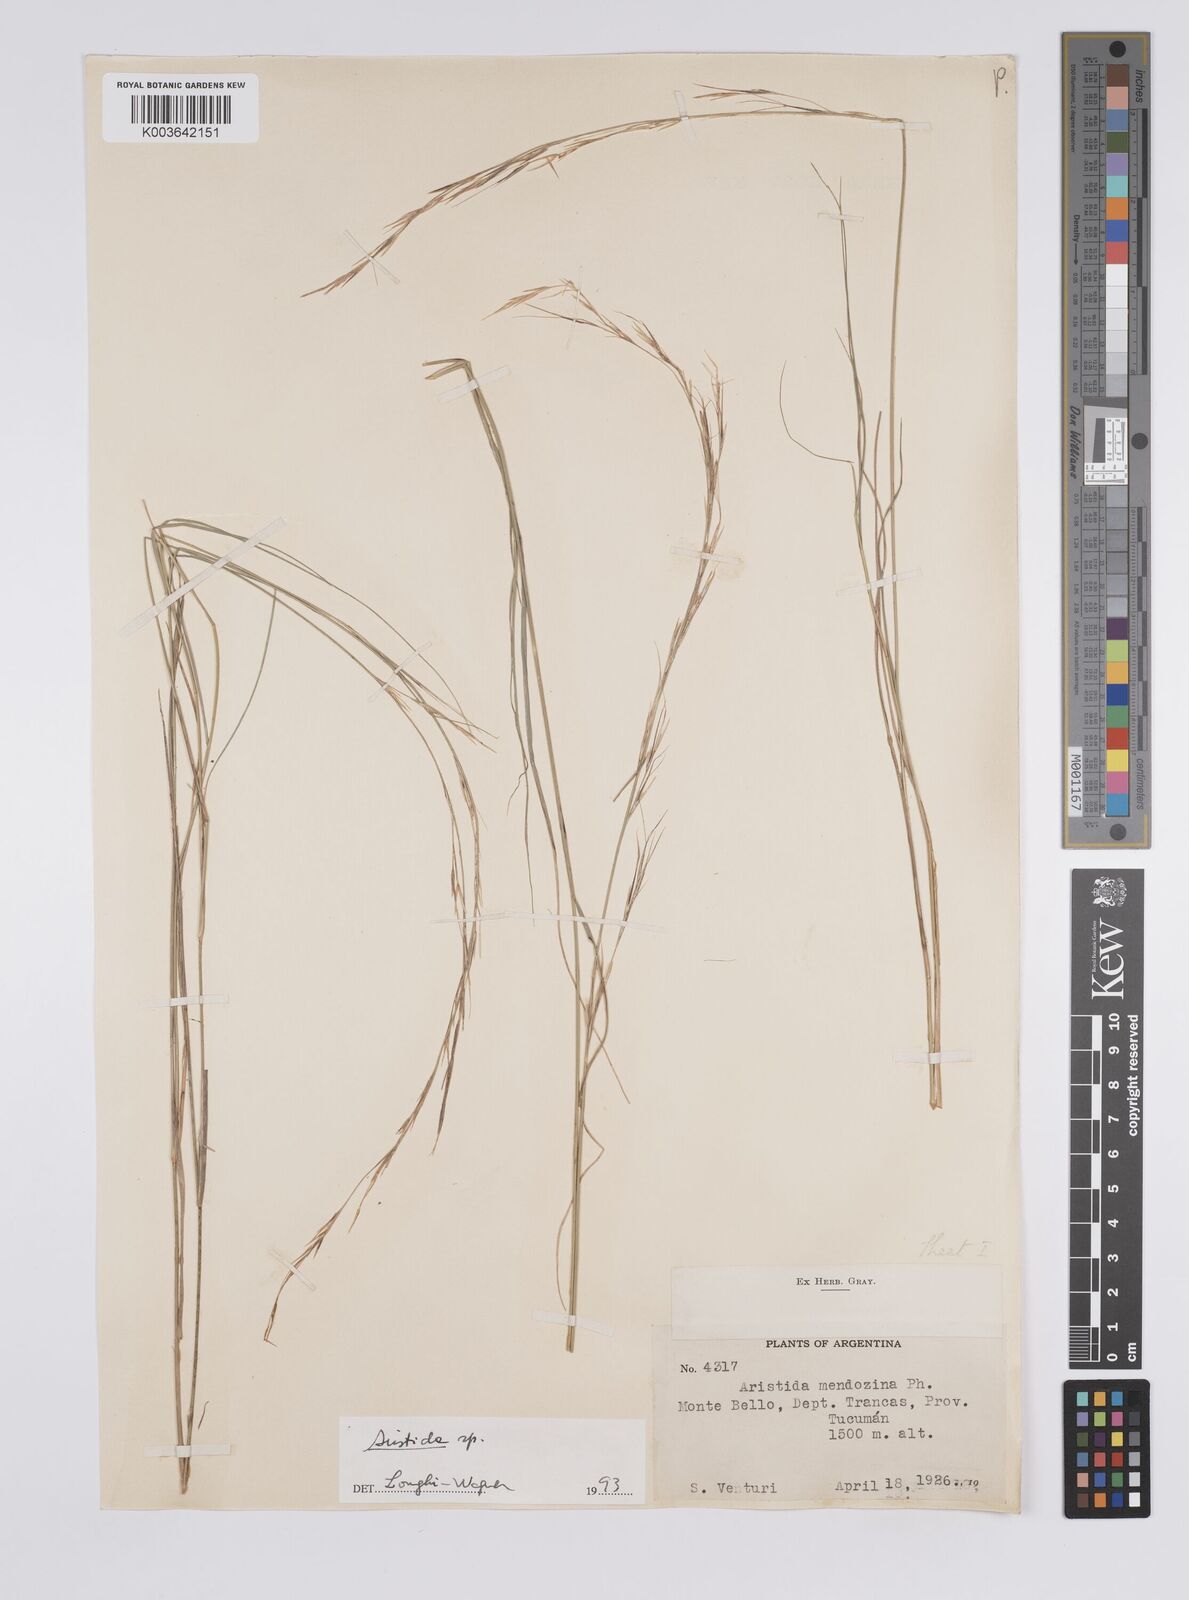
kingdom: Plantae
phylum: Tracheophyta
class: Liliopsida
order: Poales
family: Poaceae
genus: Aristida
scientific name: Aristida
